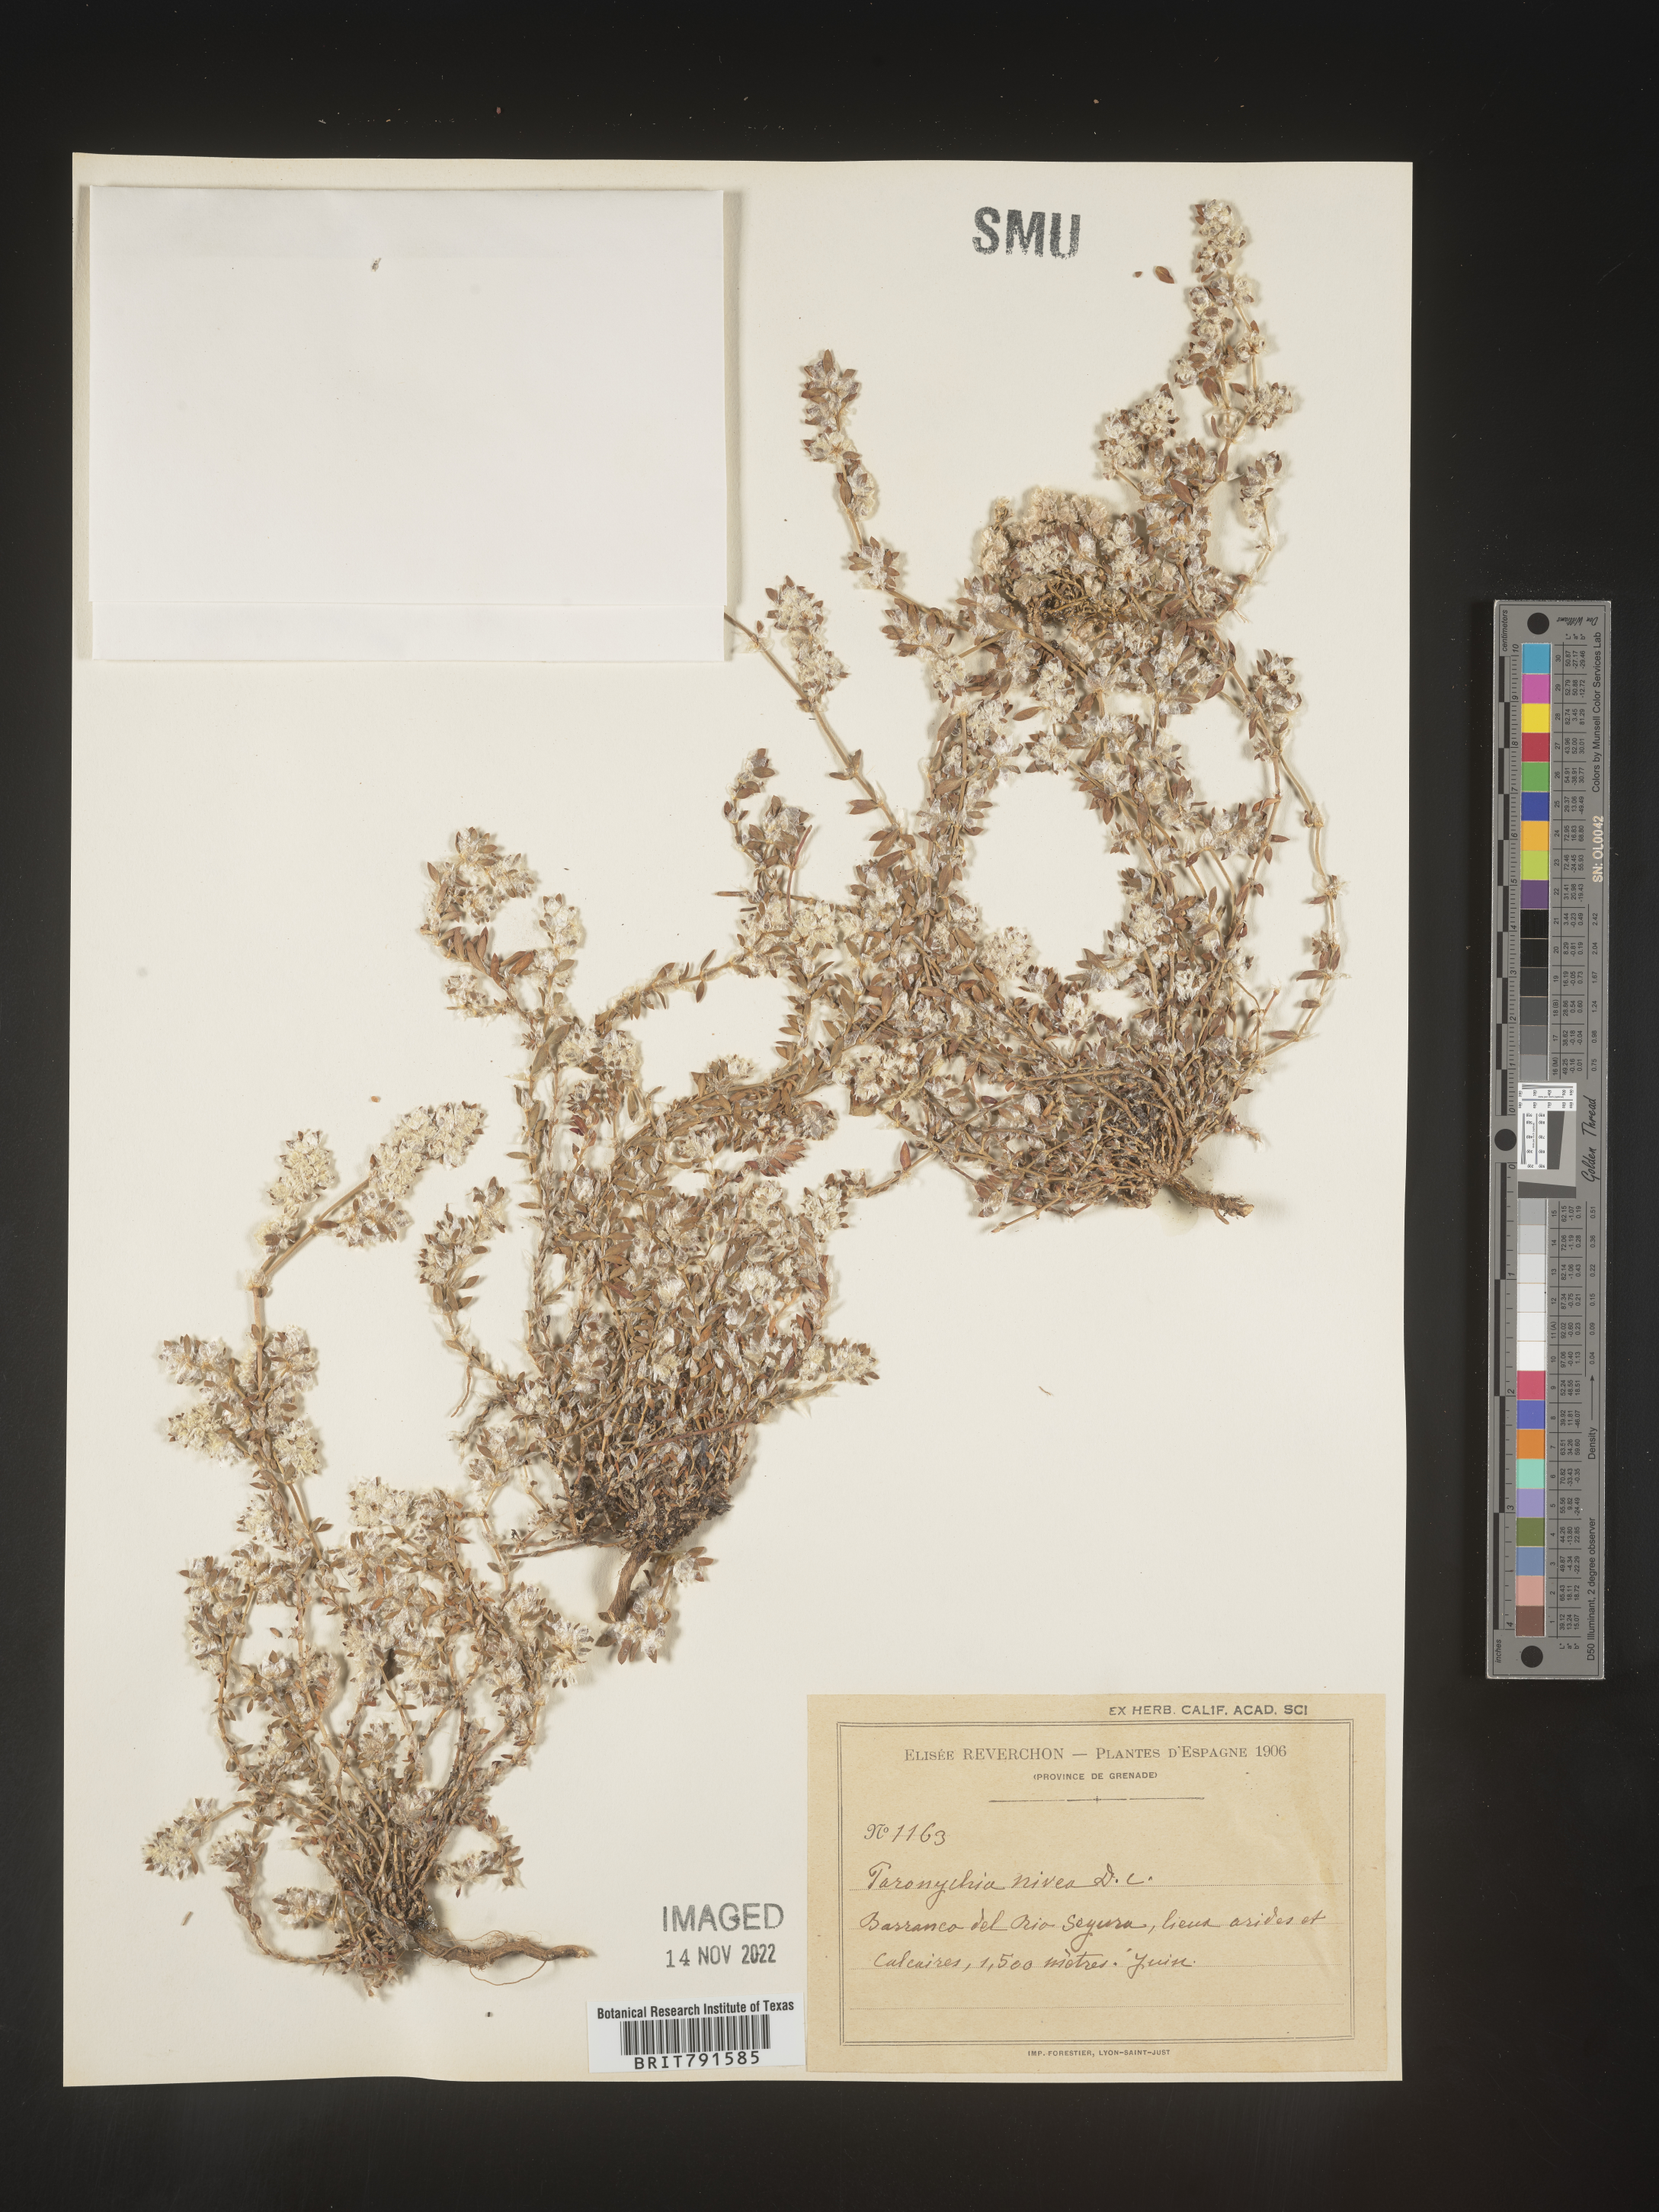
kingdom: Plantae
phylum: Tracheophyta
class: Magnoliopsida
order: Caryophyllales
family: Caryophyllaceae
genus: Paronychia
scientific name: Paronychia
